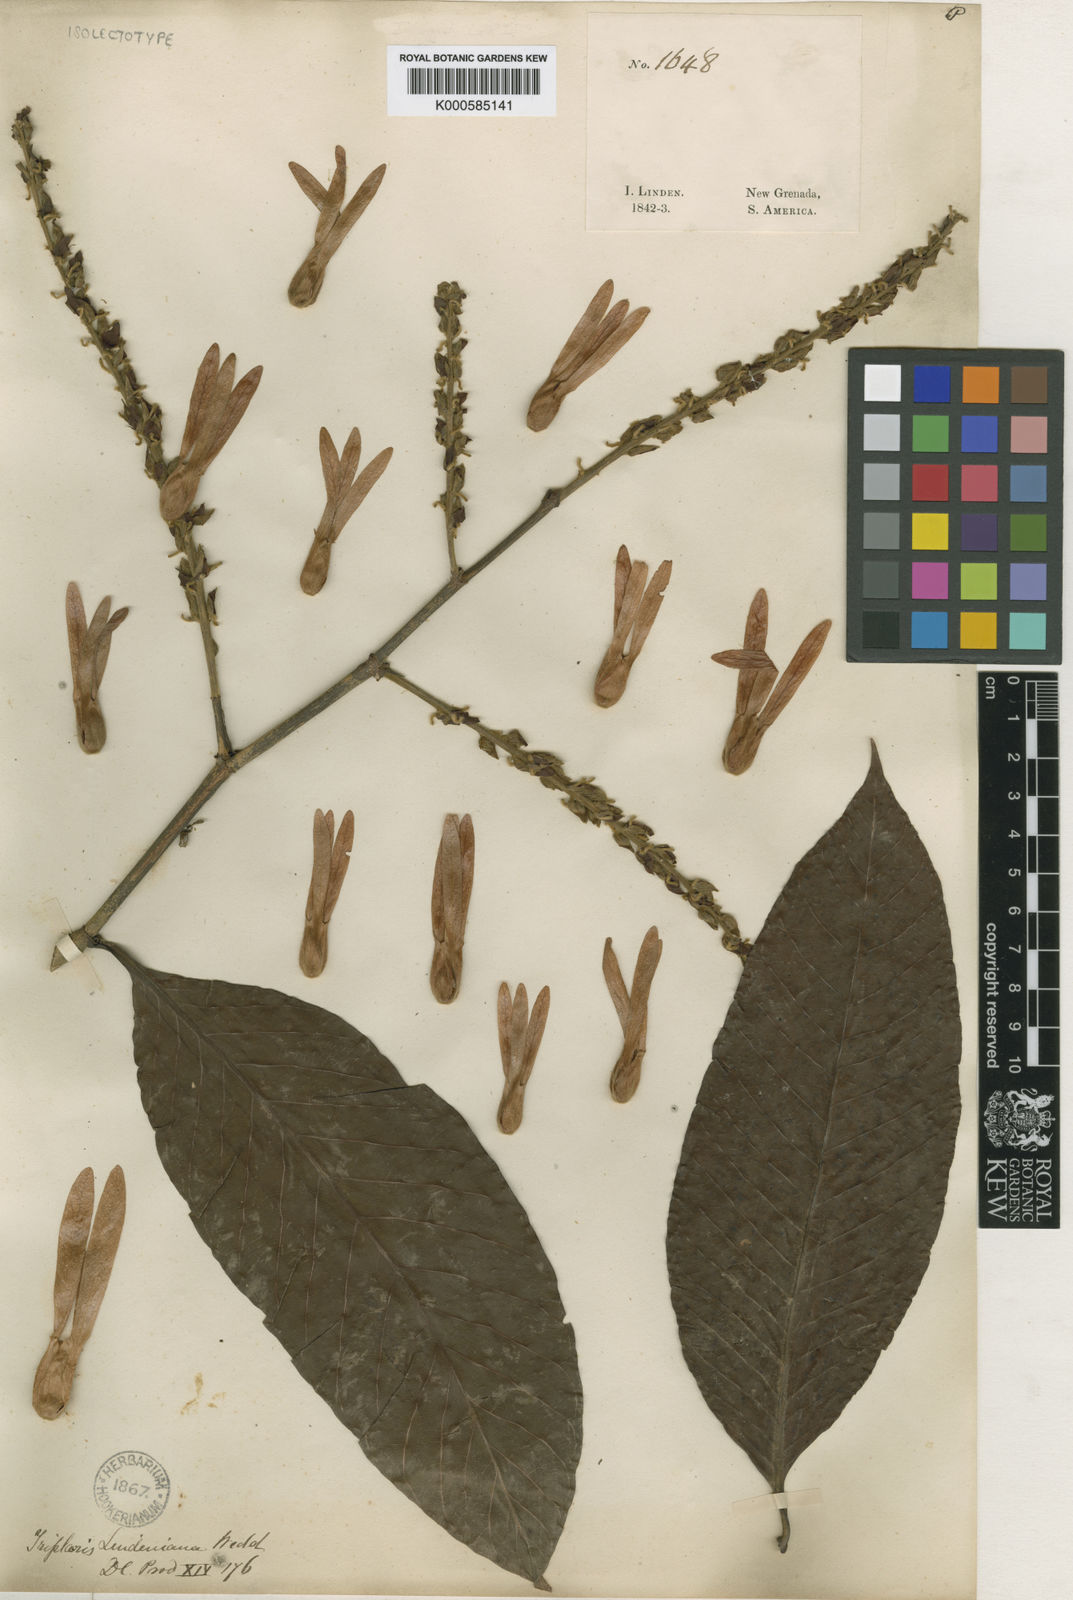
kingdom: Plantae
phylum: Tracheophyta
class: Magnoliopsida
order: Caryophyllales
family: Polygonaceae
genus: Ruprechtia
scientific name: Ruprechtia ramiflora
